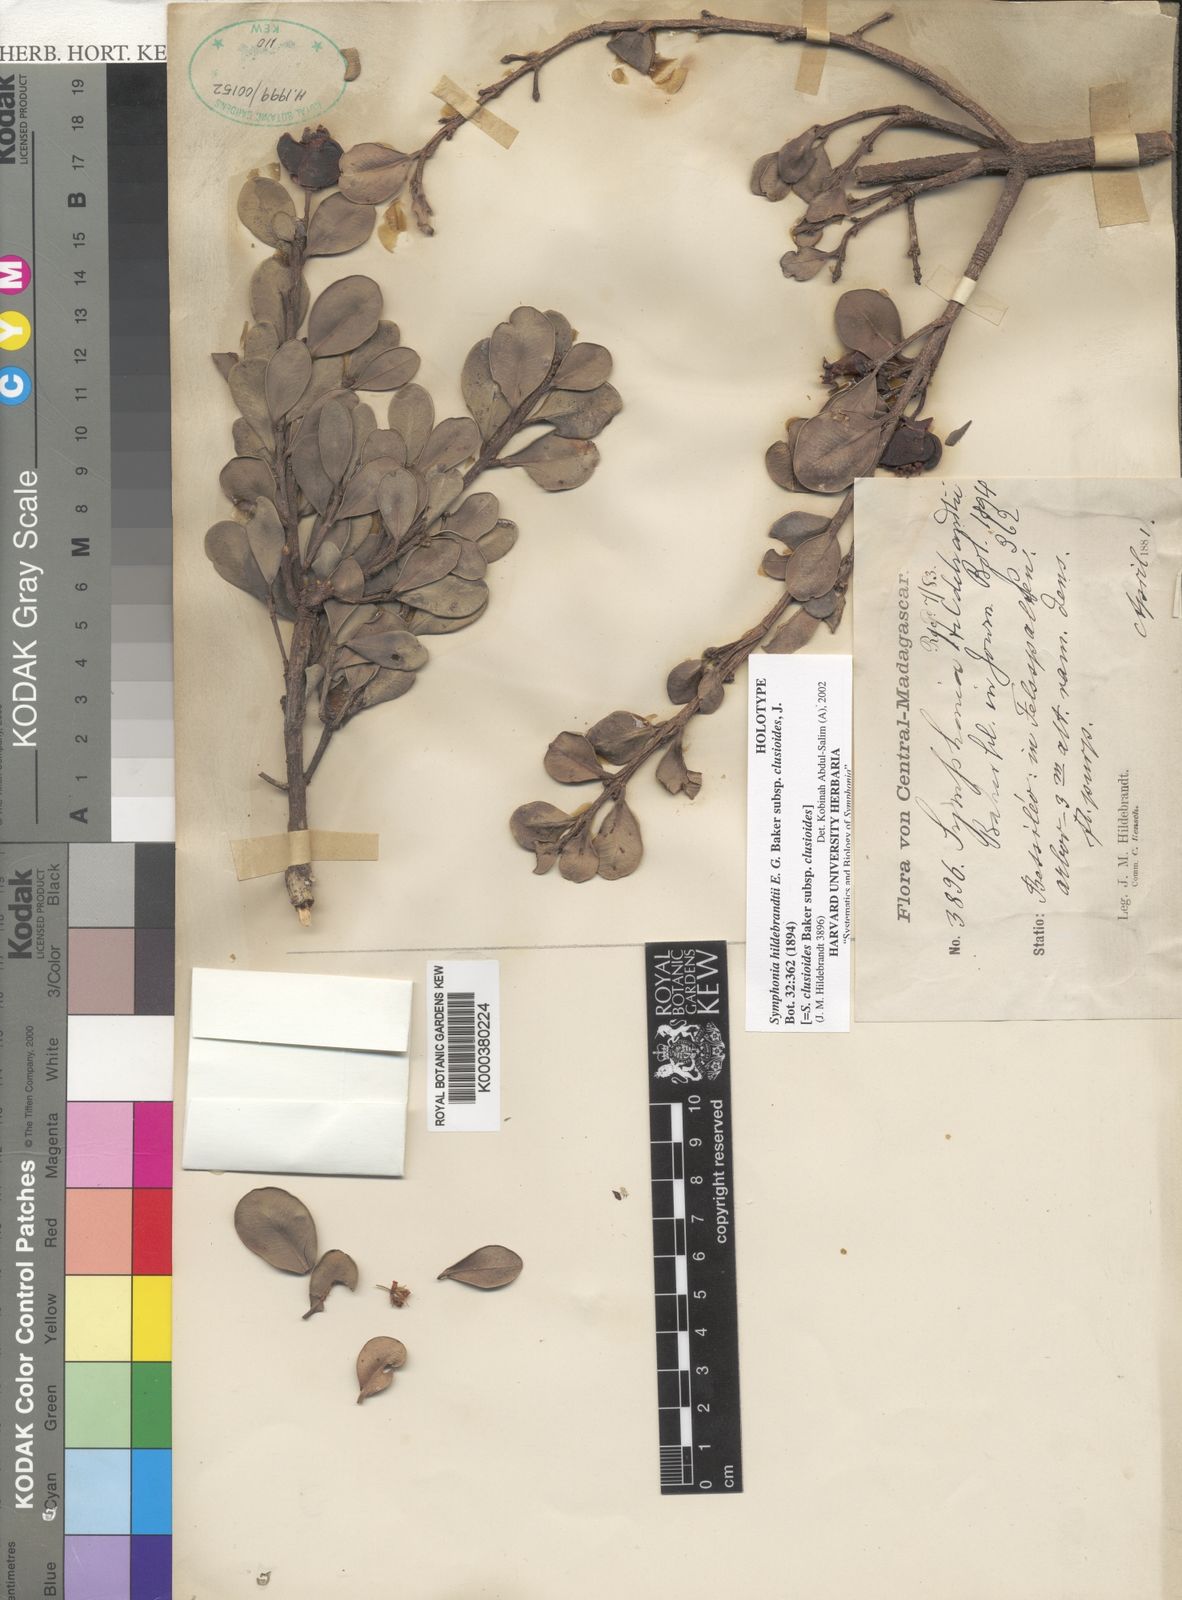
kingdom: Plantae
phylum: Tracheophyta
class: Magnoliopsida
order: Malpighiales
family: Clusiaceae
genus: Symphonia
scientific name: Symphonia clusioides
